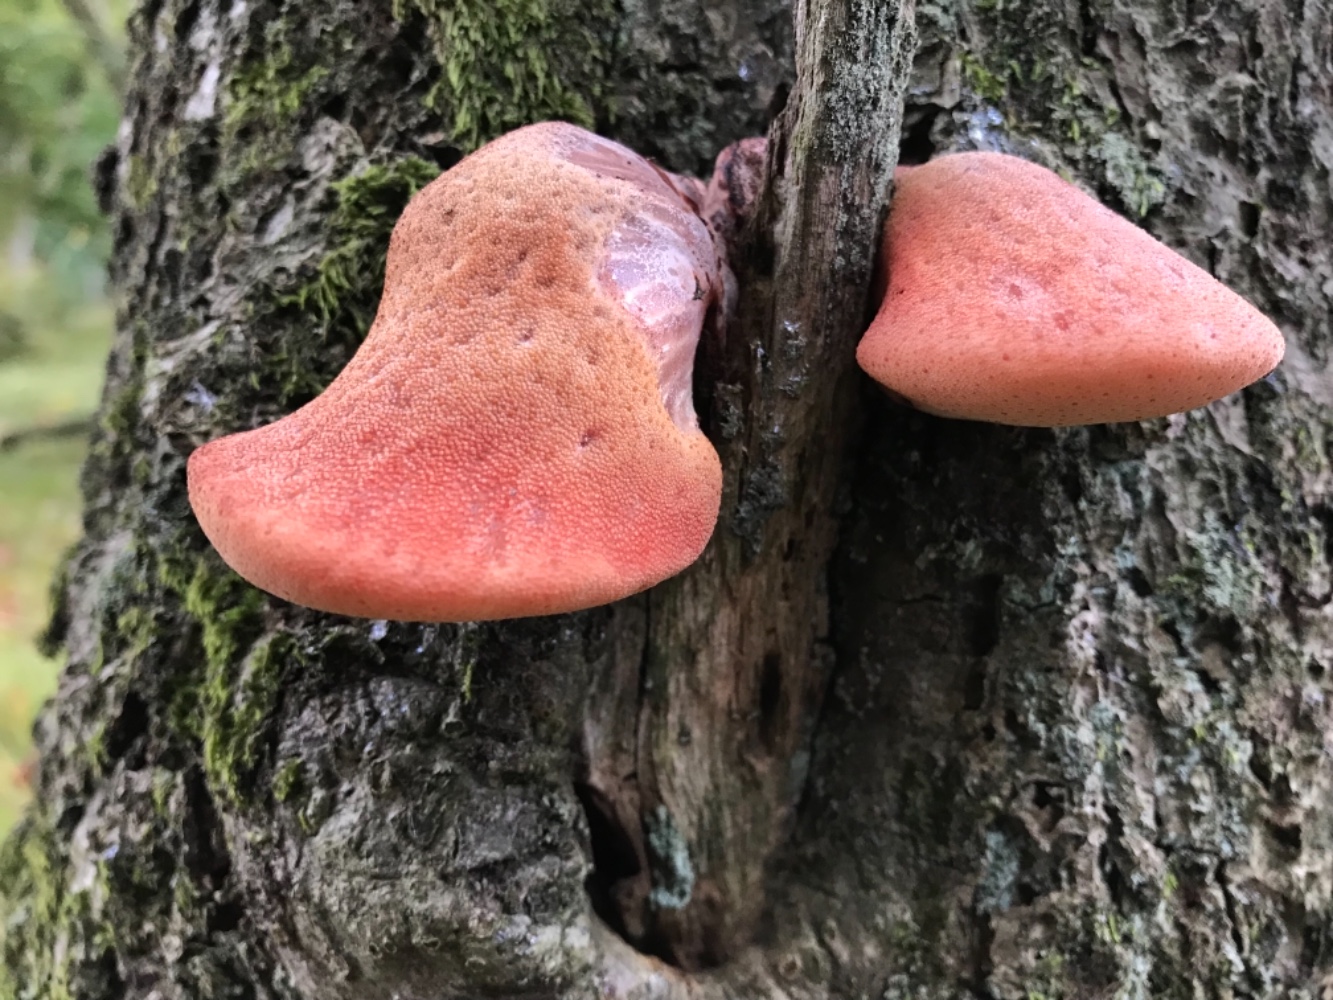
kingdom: Fungi
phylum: Basidiomycota
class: Agaricomycetes
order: Agaricales
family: Fistulinaceae
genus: Fistulina
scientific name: Fistulina hepatica
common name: oksetunge
